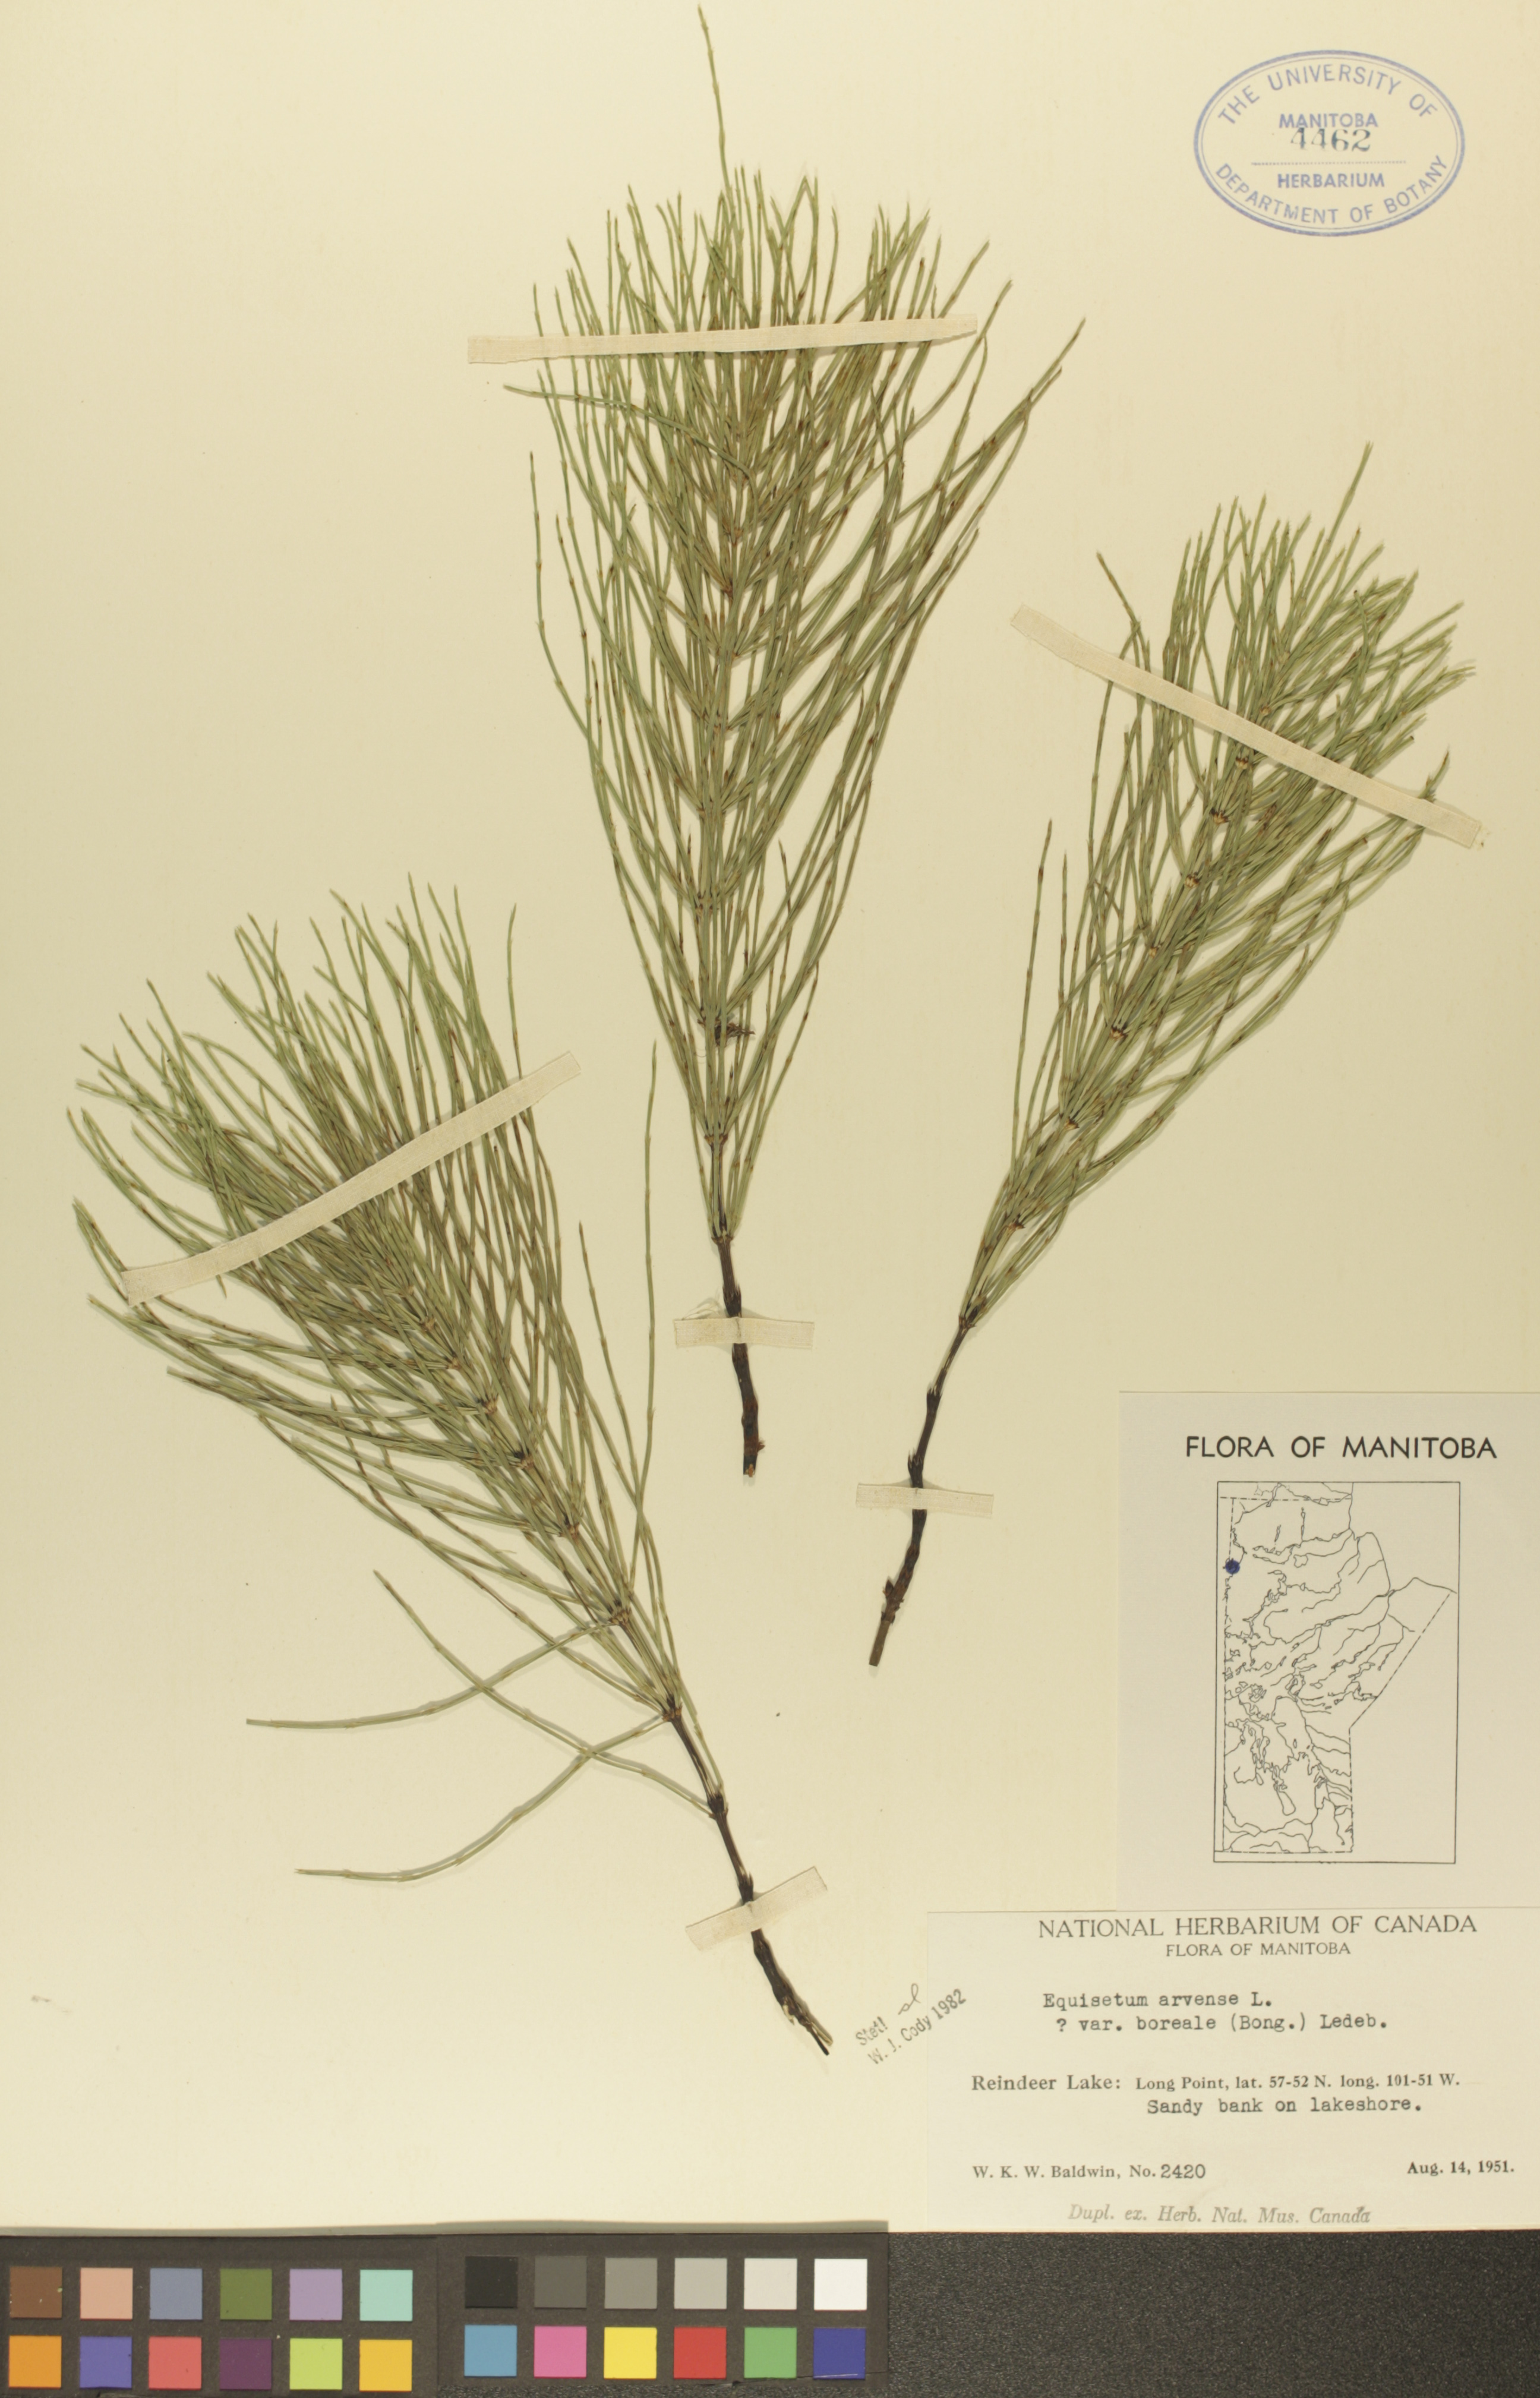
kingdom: Plantae
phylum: Tracheophyta
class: Polypodiopsida
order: Equisetales
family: Equisetaceae
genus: Equisetum
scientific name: Equisetum arvense
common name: Field horsetail
